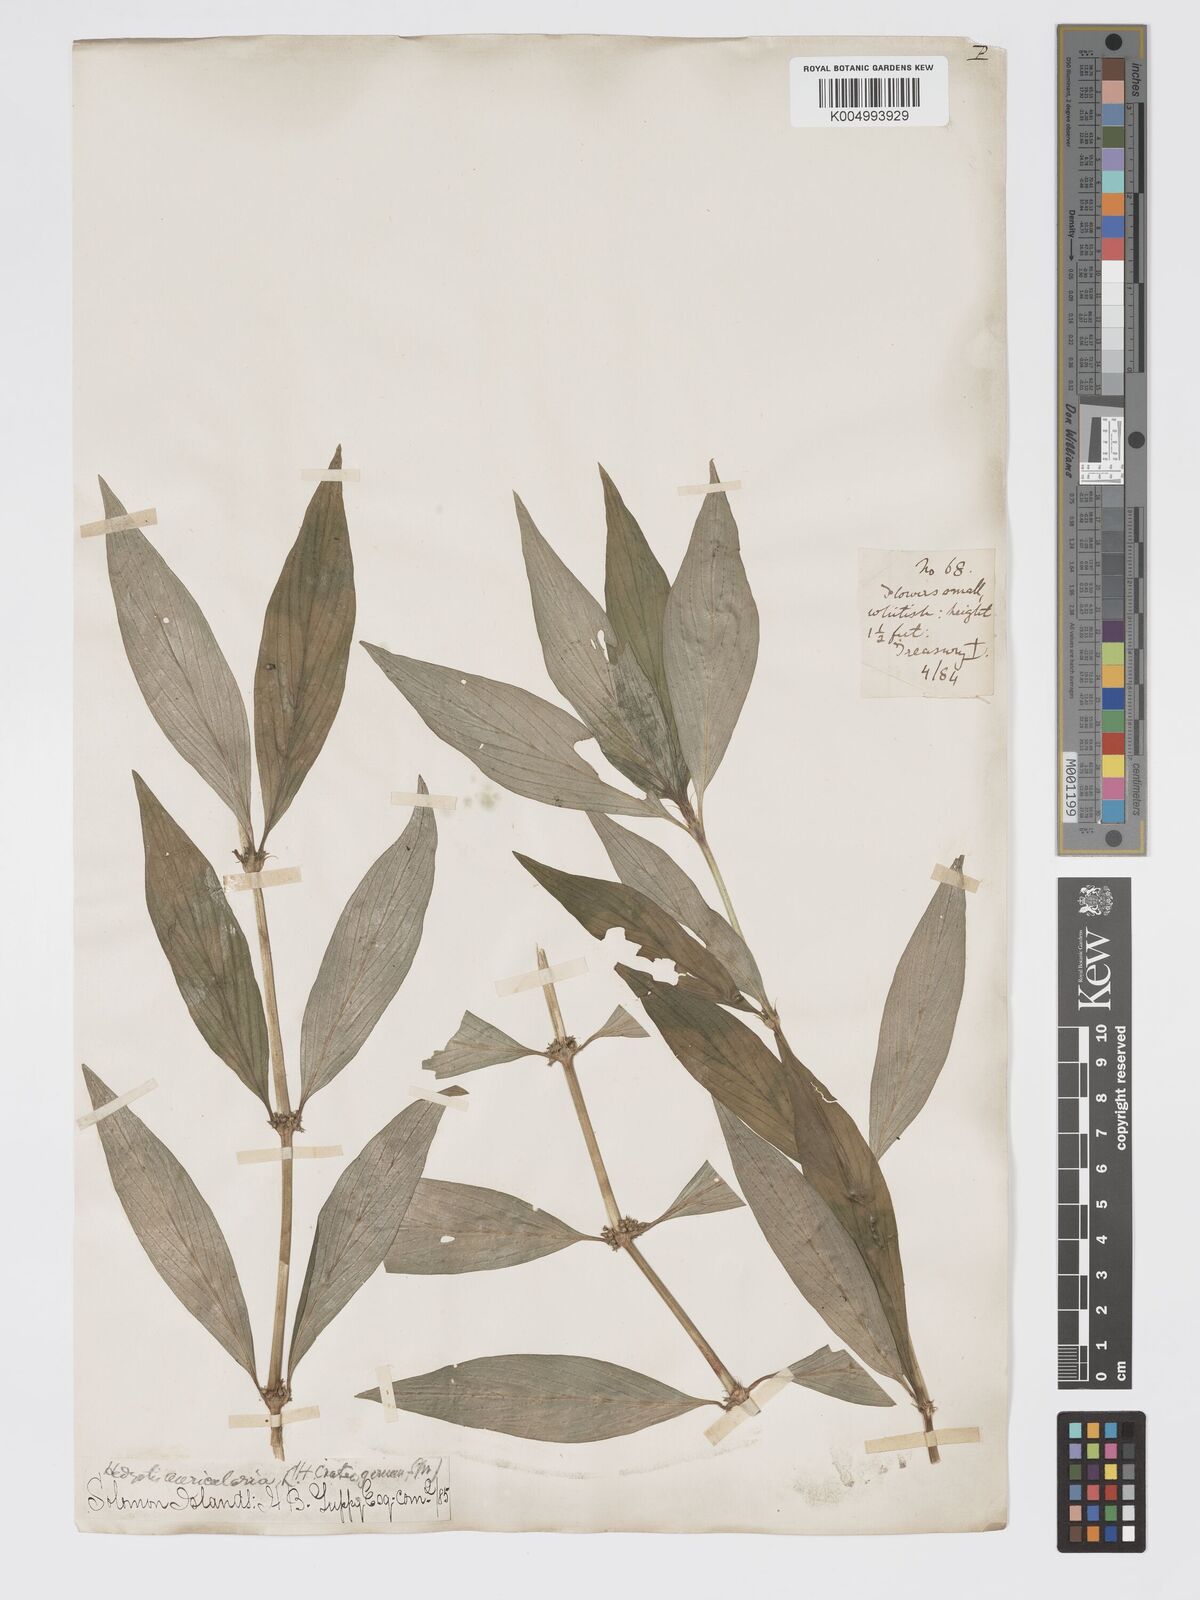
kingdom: Plantae
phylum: Tracheophyta
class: Magnoliopsida
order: Gentianales
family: Rubiaceae
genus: Exallage
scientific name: Exallage lapeyrousei
